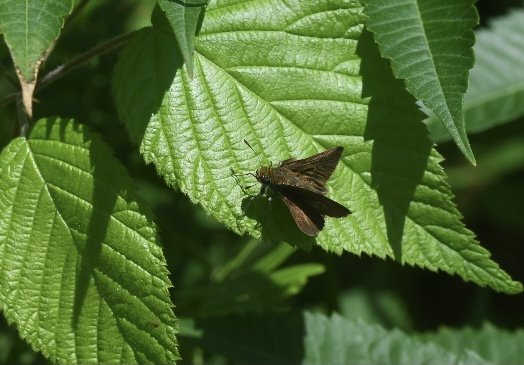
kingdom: Animalia
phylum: Arthropoda
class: Insecta
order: Lepidoptera
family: Hesperiidae
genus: Euphyes
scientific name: Euphyes vestris
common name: Dun Skipper
